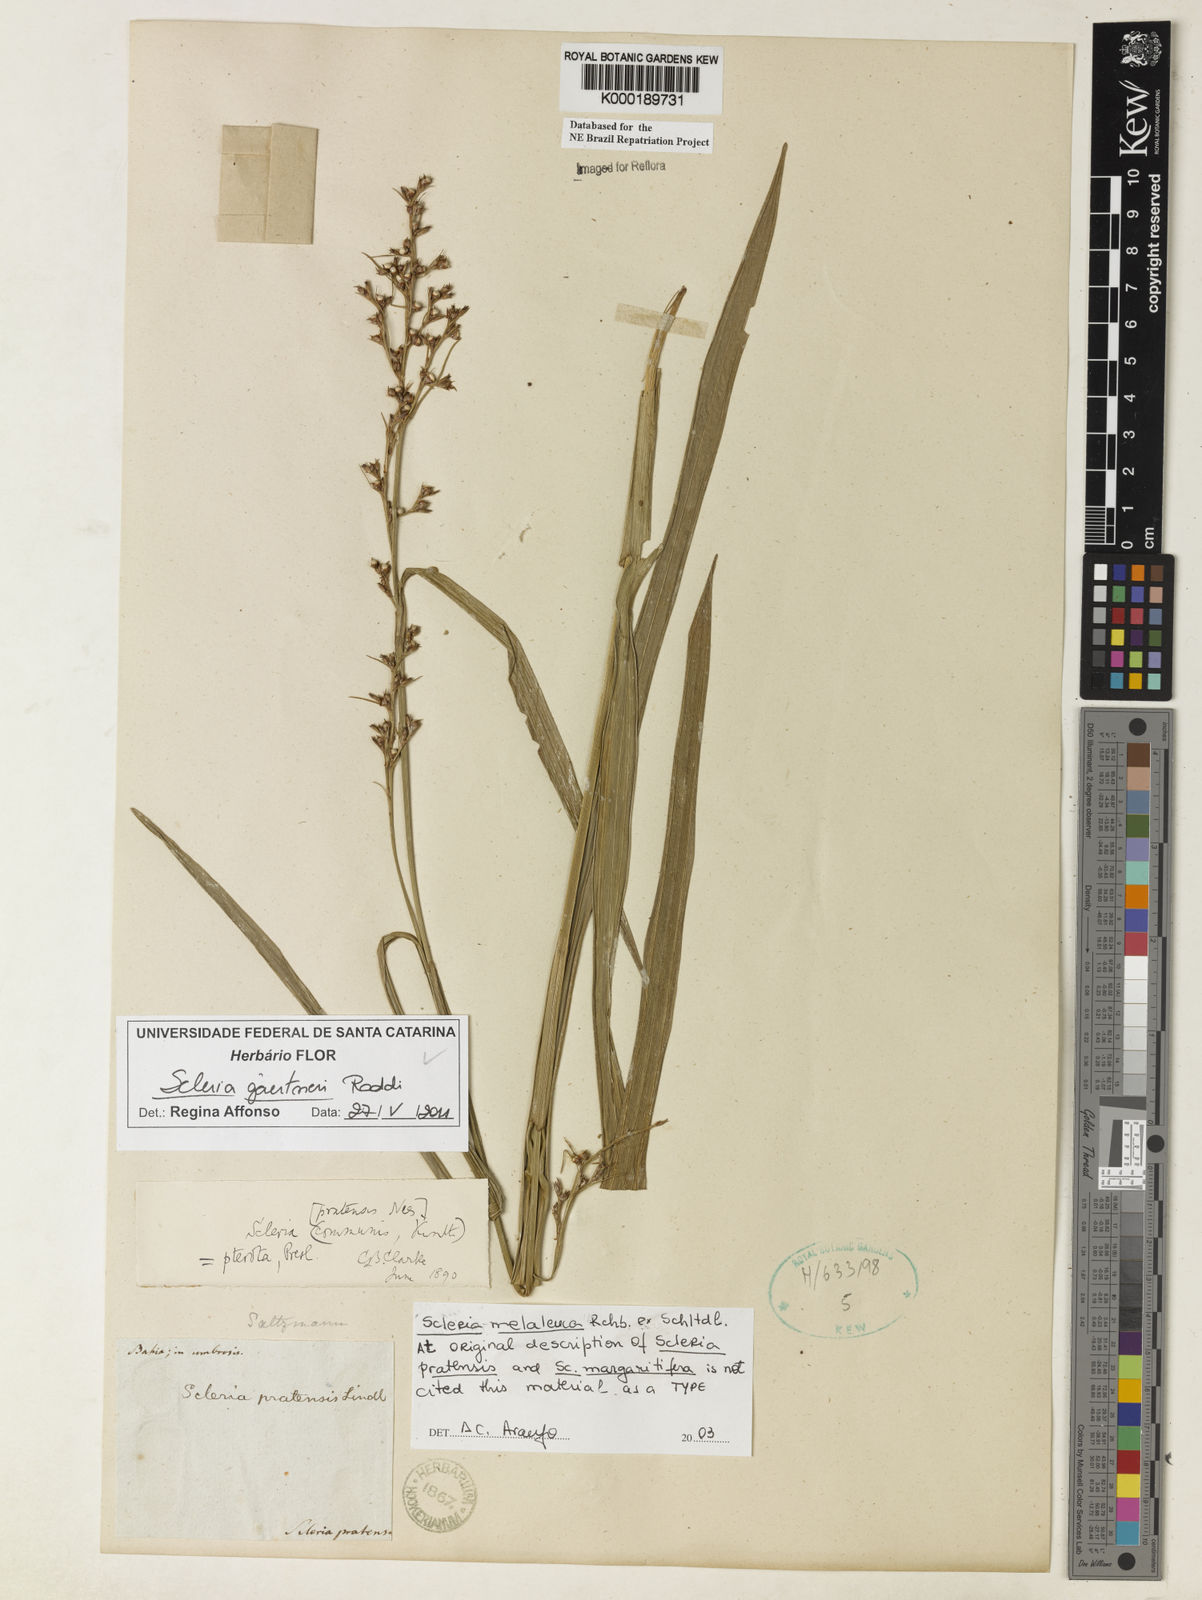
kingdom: Plantae
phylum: Tracheophyta
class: Liliopsida
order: Poales
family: Cyperaceae
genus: Scleria
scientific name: Scleria gaertneri
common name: Cortadera blanca
